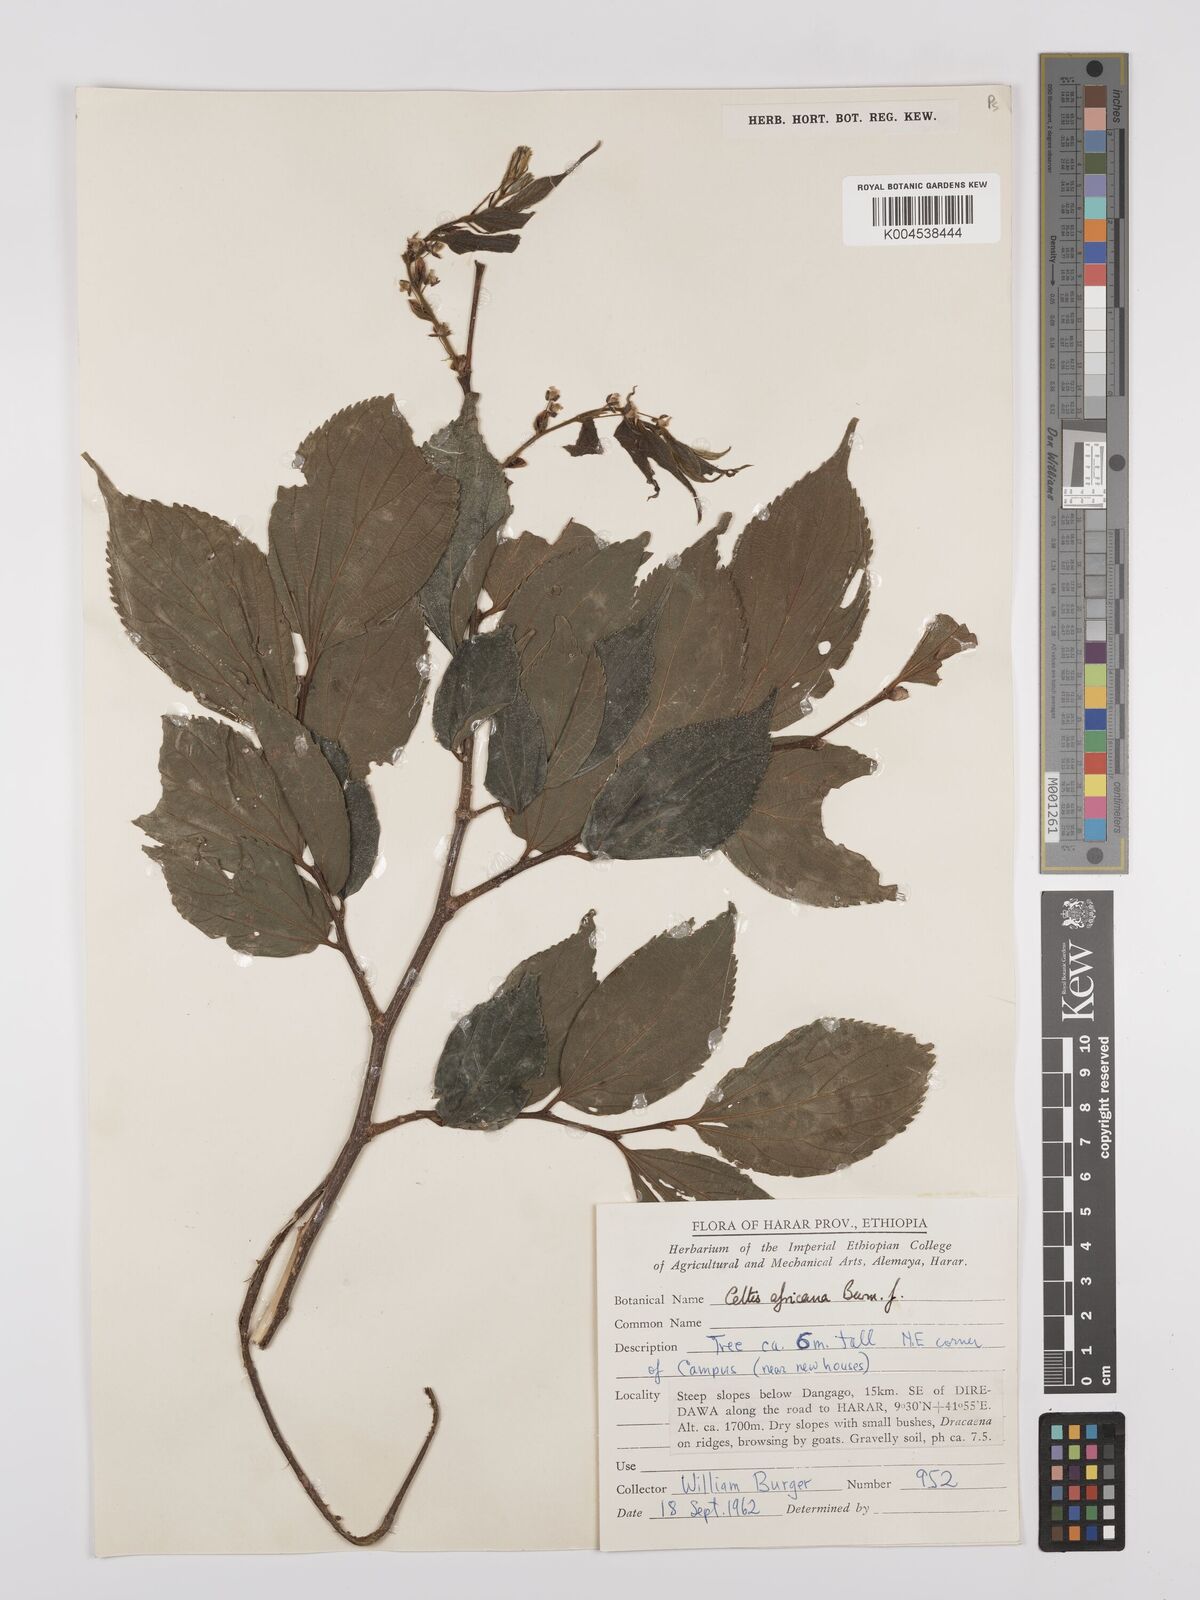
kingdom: Plantae
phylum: Tracheophyta
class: Magnoliopsida
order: Rosales
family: Cannabaceae
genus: Celtis
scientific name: Celtis africana
